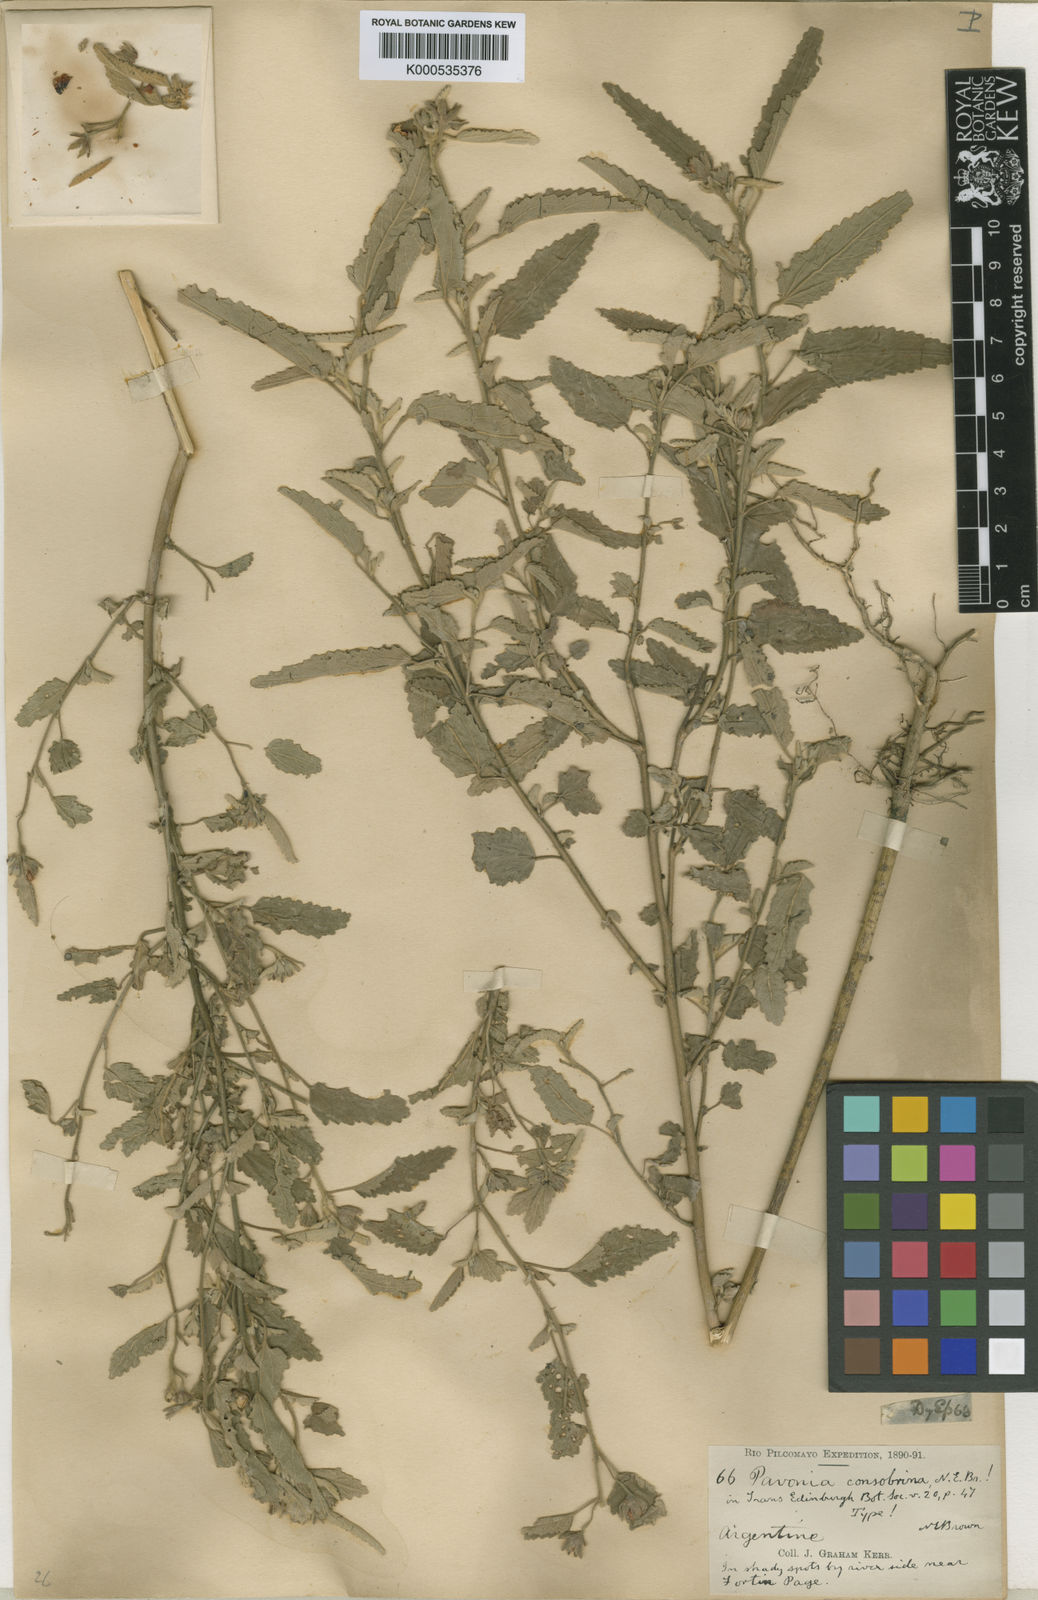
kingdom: Plantae
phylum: Tracheophyta
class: Magnoliopsida
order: Malvales
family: Malvaceae
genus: Pavonia
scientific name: Pavonia betonicifolia
